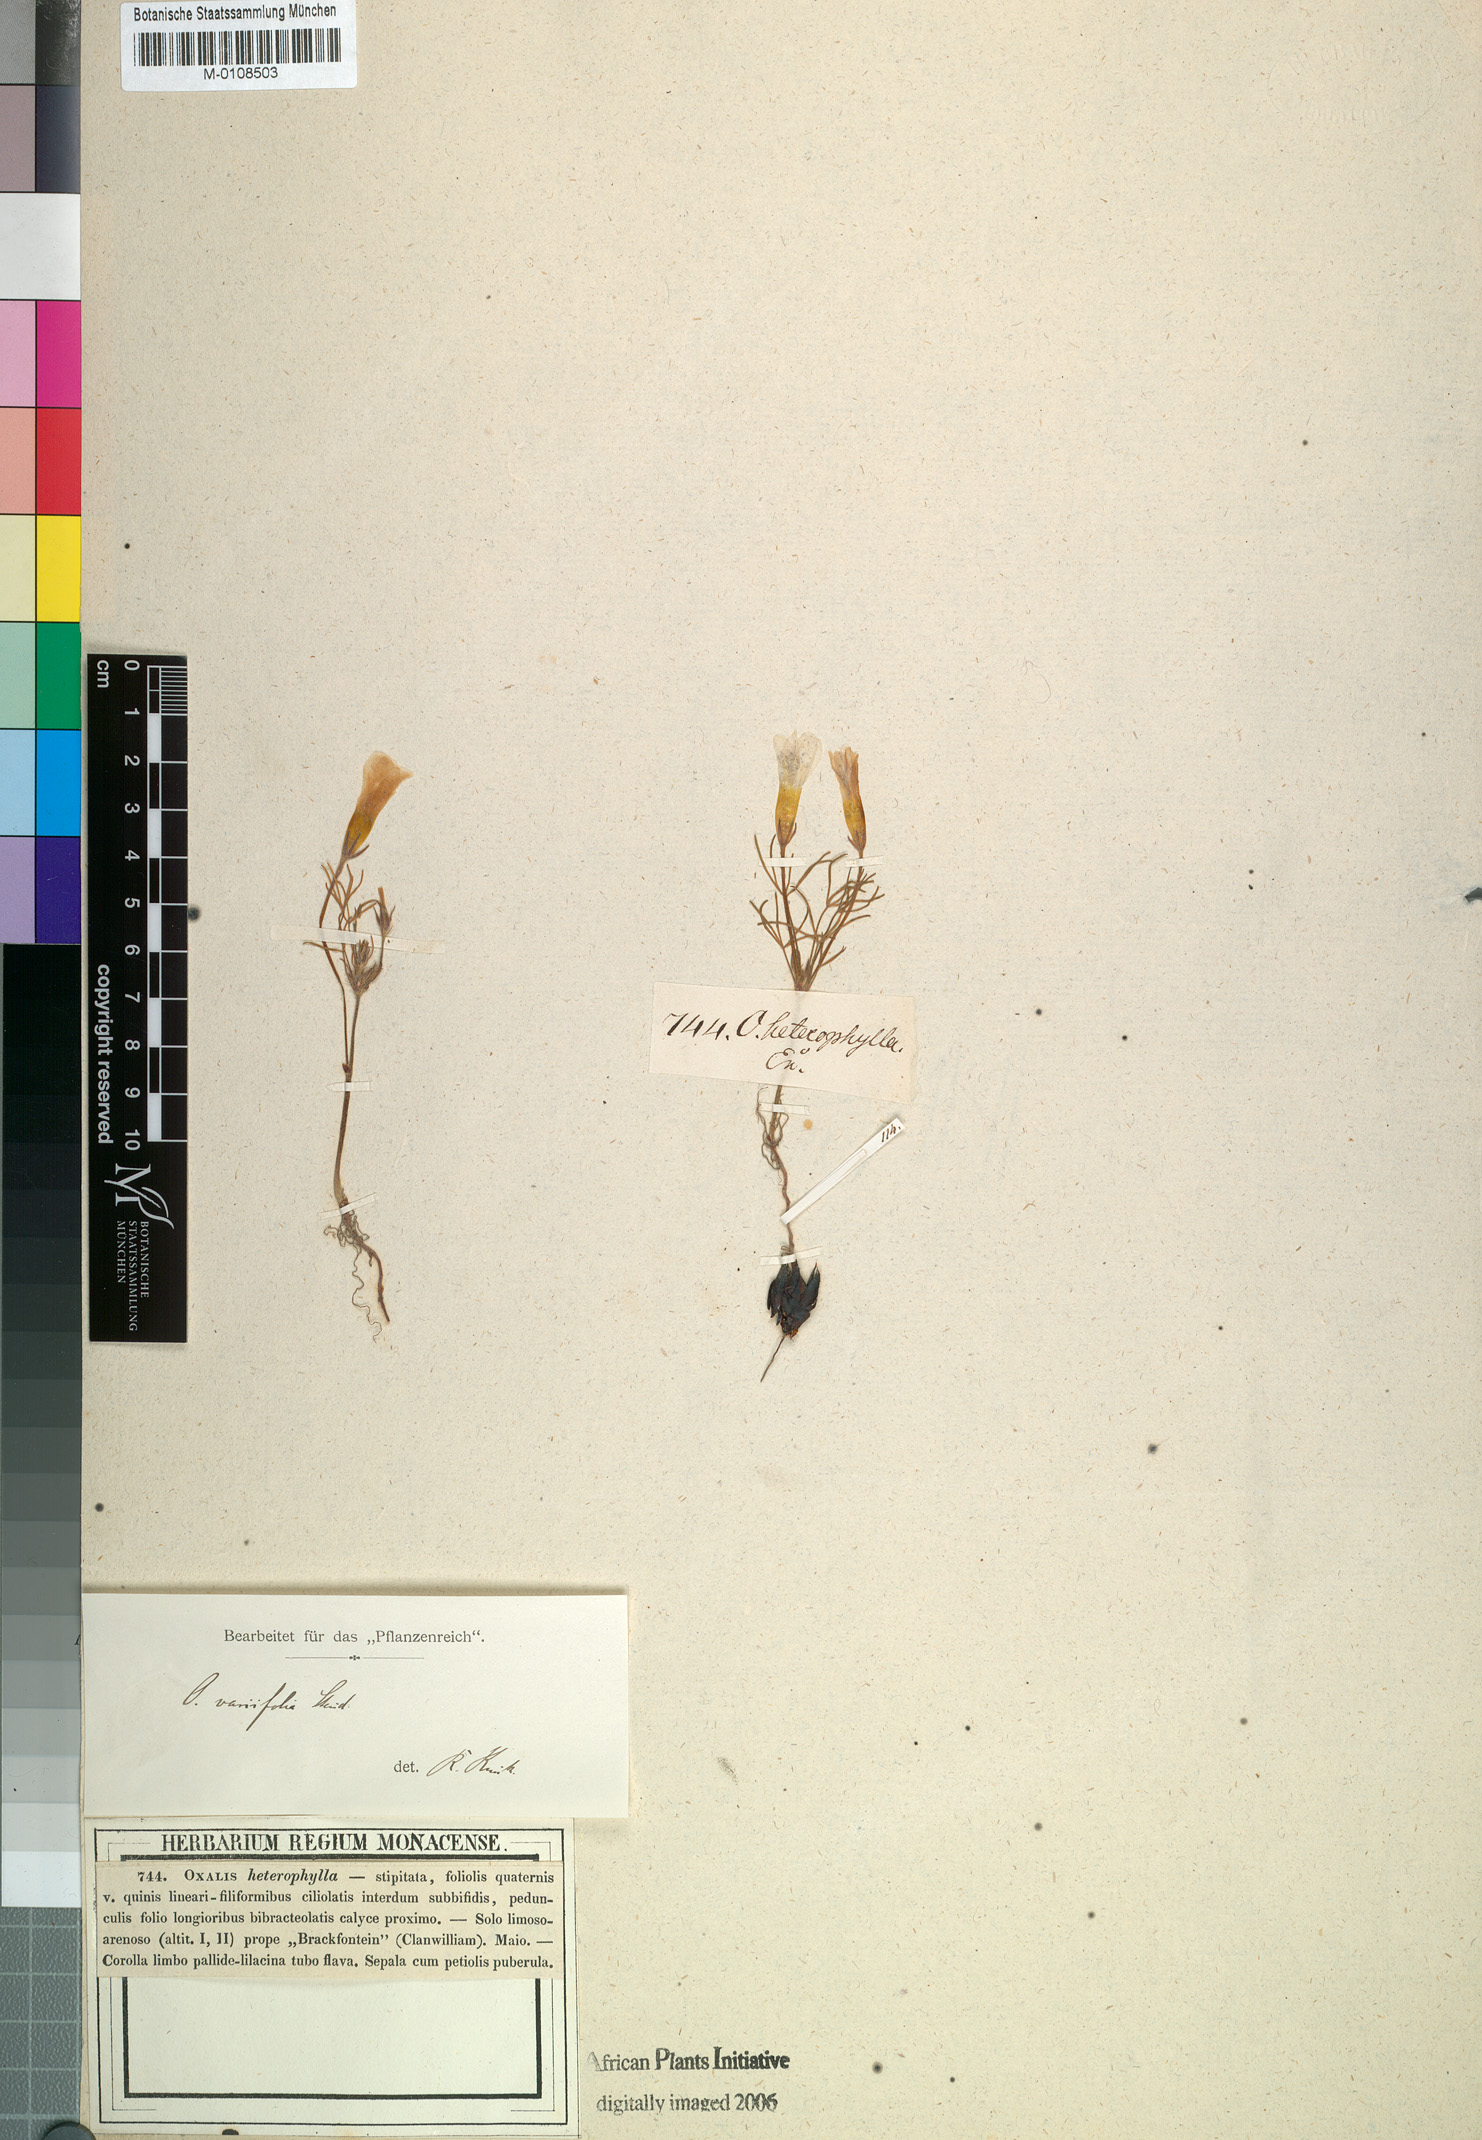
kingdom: Plantae
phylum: Tracheophyta
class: Magnoliopsida
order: Oxalidales
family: Oxalidaceae
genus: Oxalis
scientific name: Oxalis variifolia
